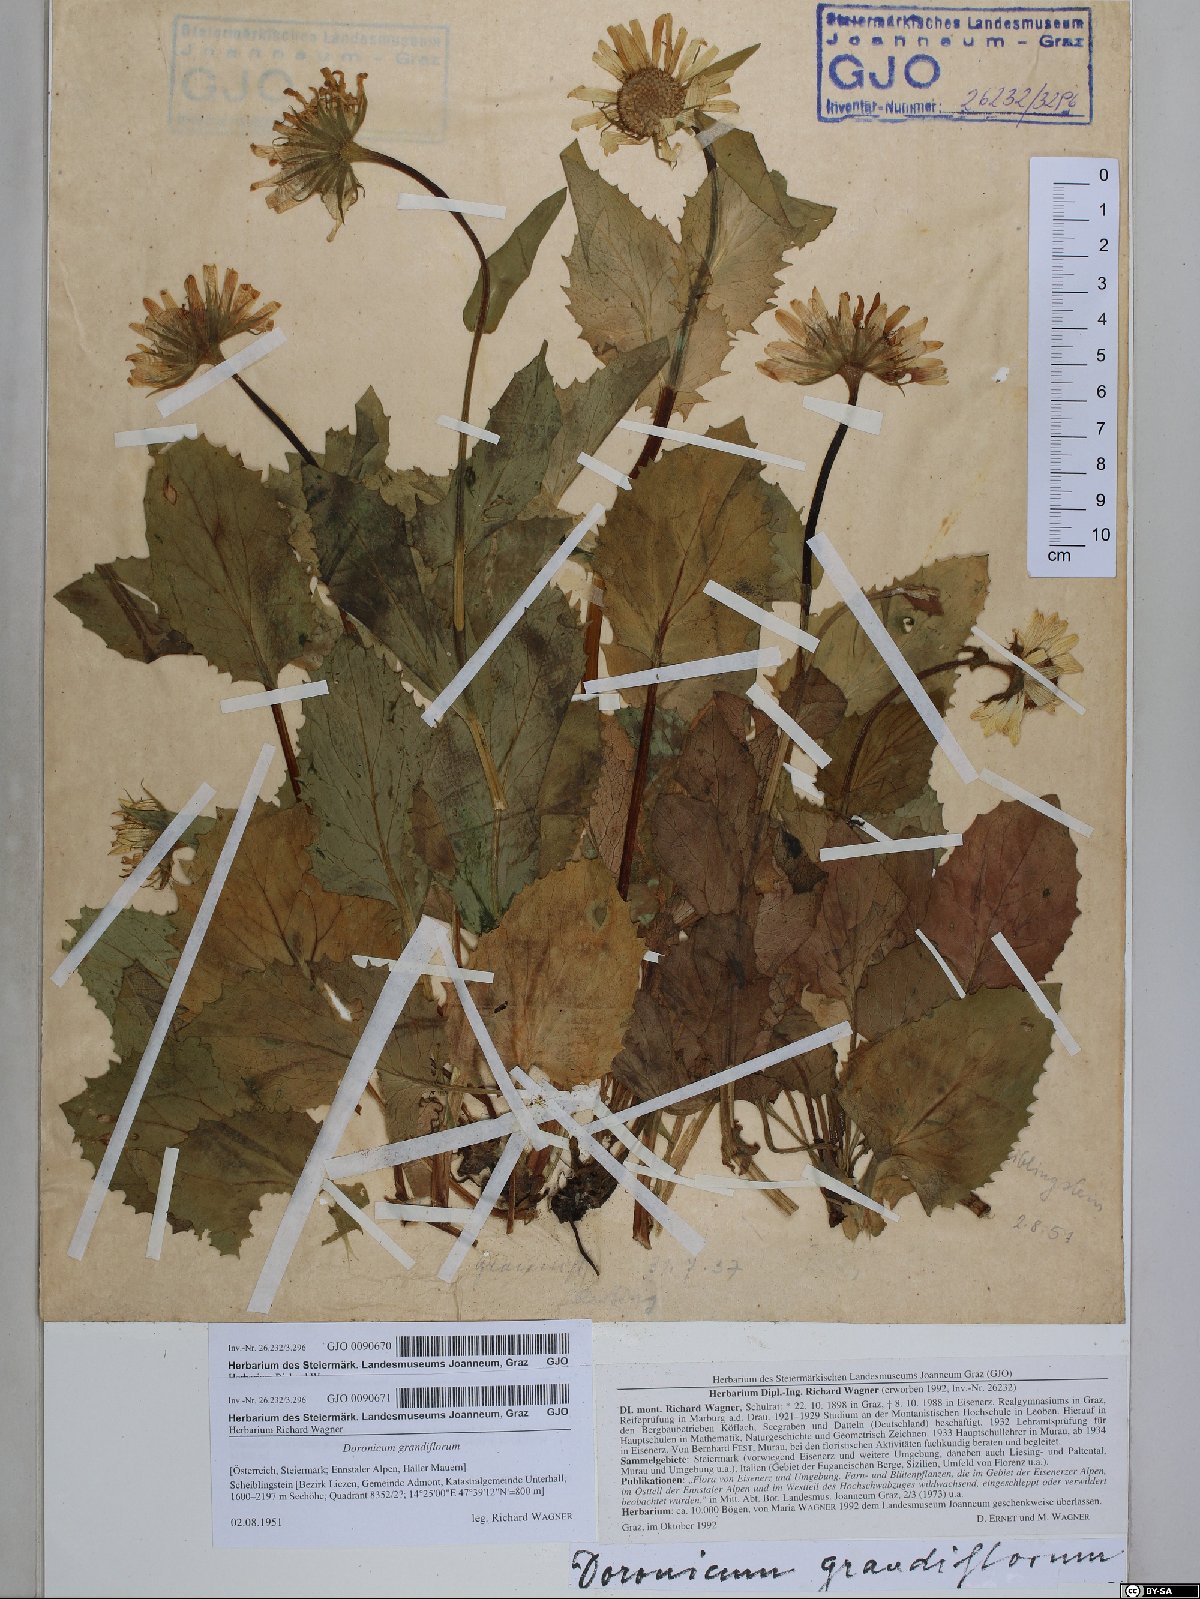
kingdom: Plantae
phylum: Tracheophyta
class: Magnoliopsida
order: Asterales
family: Asteraceae
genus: Doronicum
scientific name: Doronicum grandiflorum
